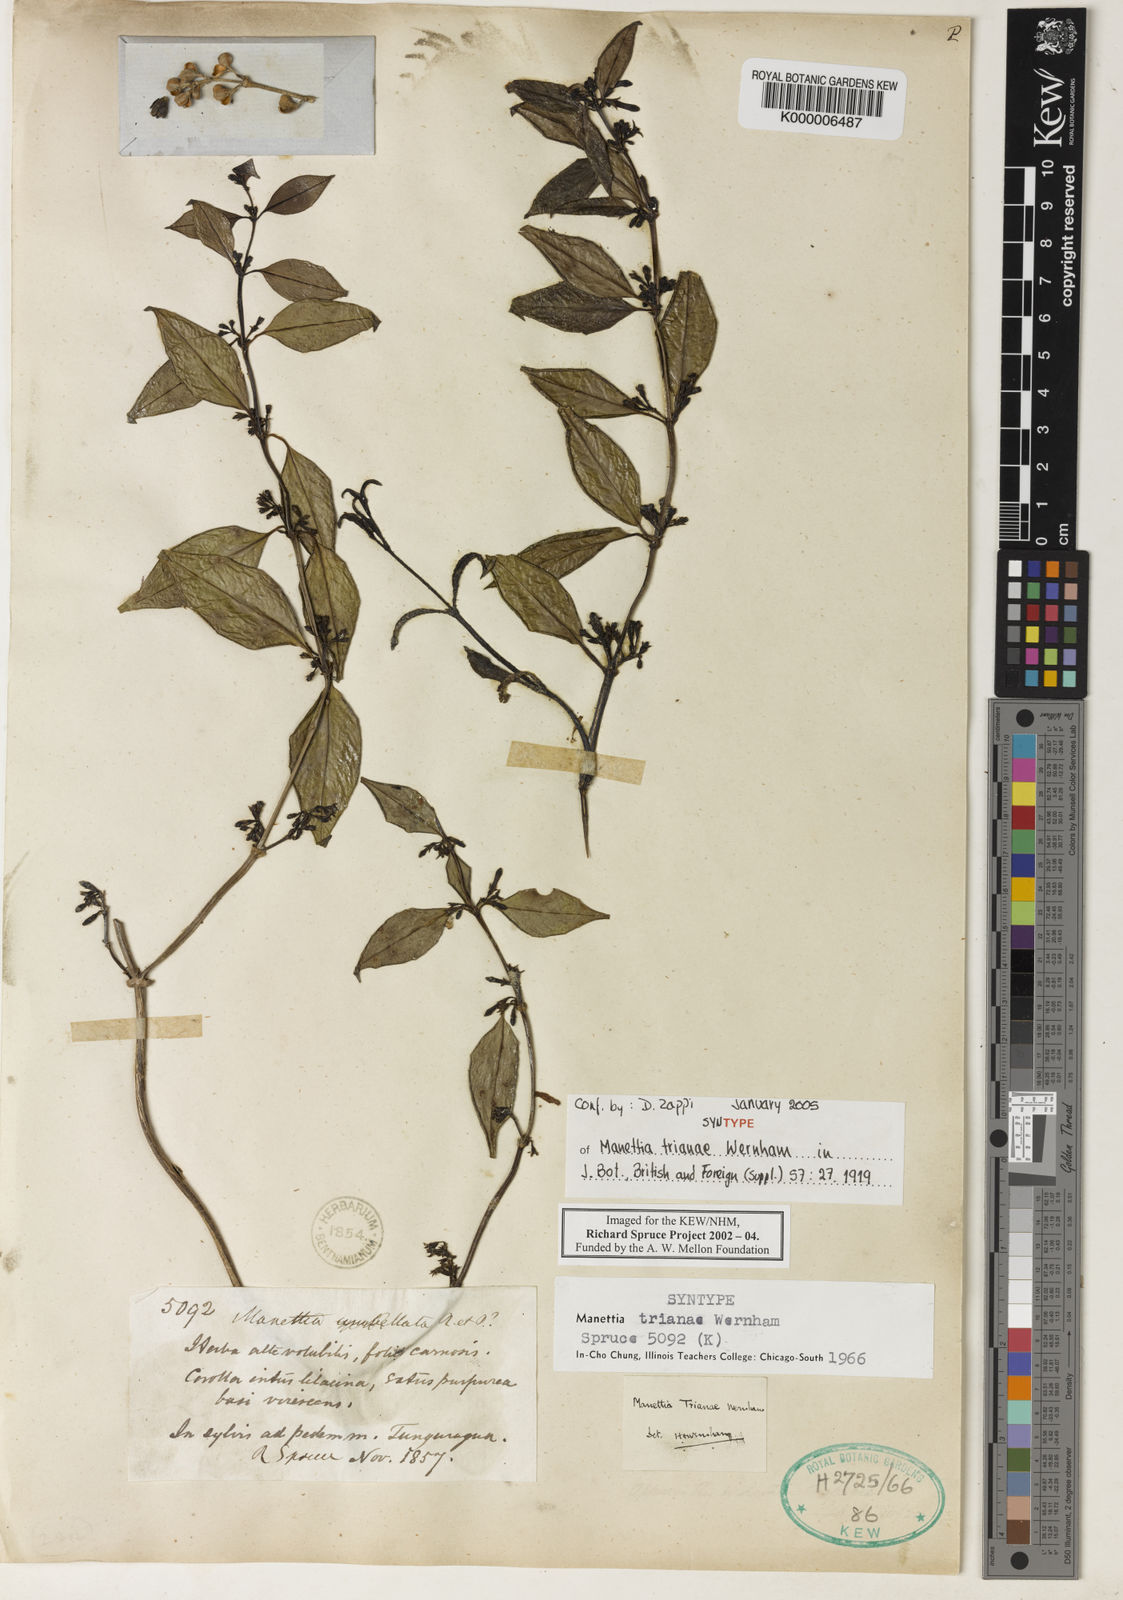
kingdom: Plantae
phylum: Tracheophyta
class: Magnoliopsida
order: Gentianales
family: Rubiaceae
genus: Manettia
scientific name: Manettia trianae
